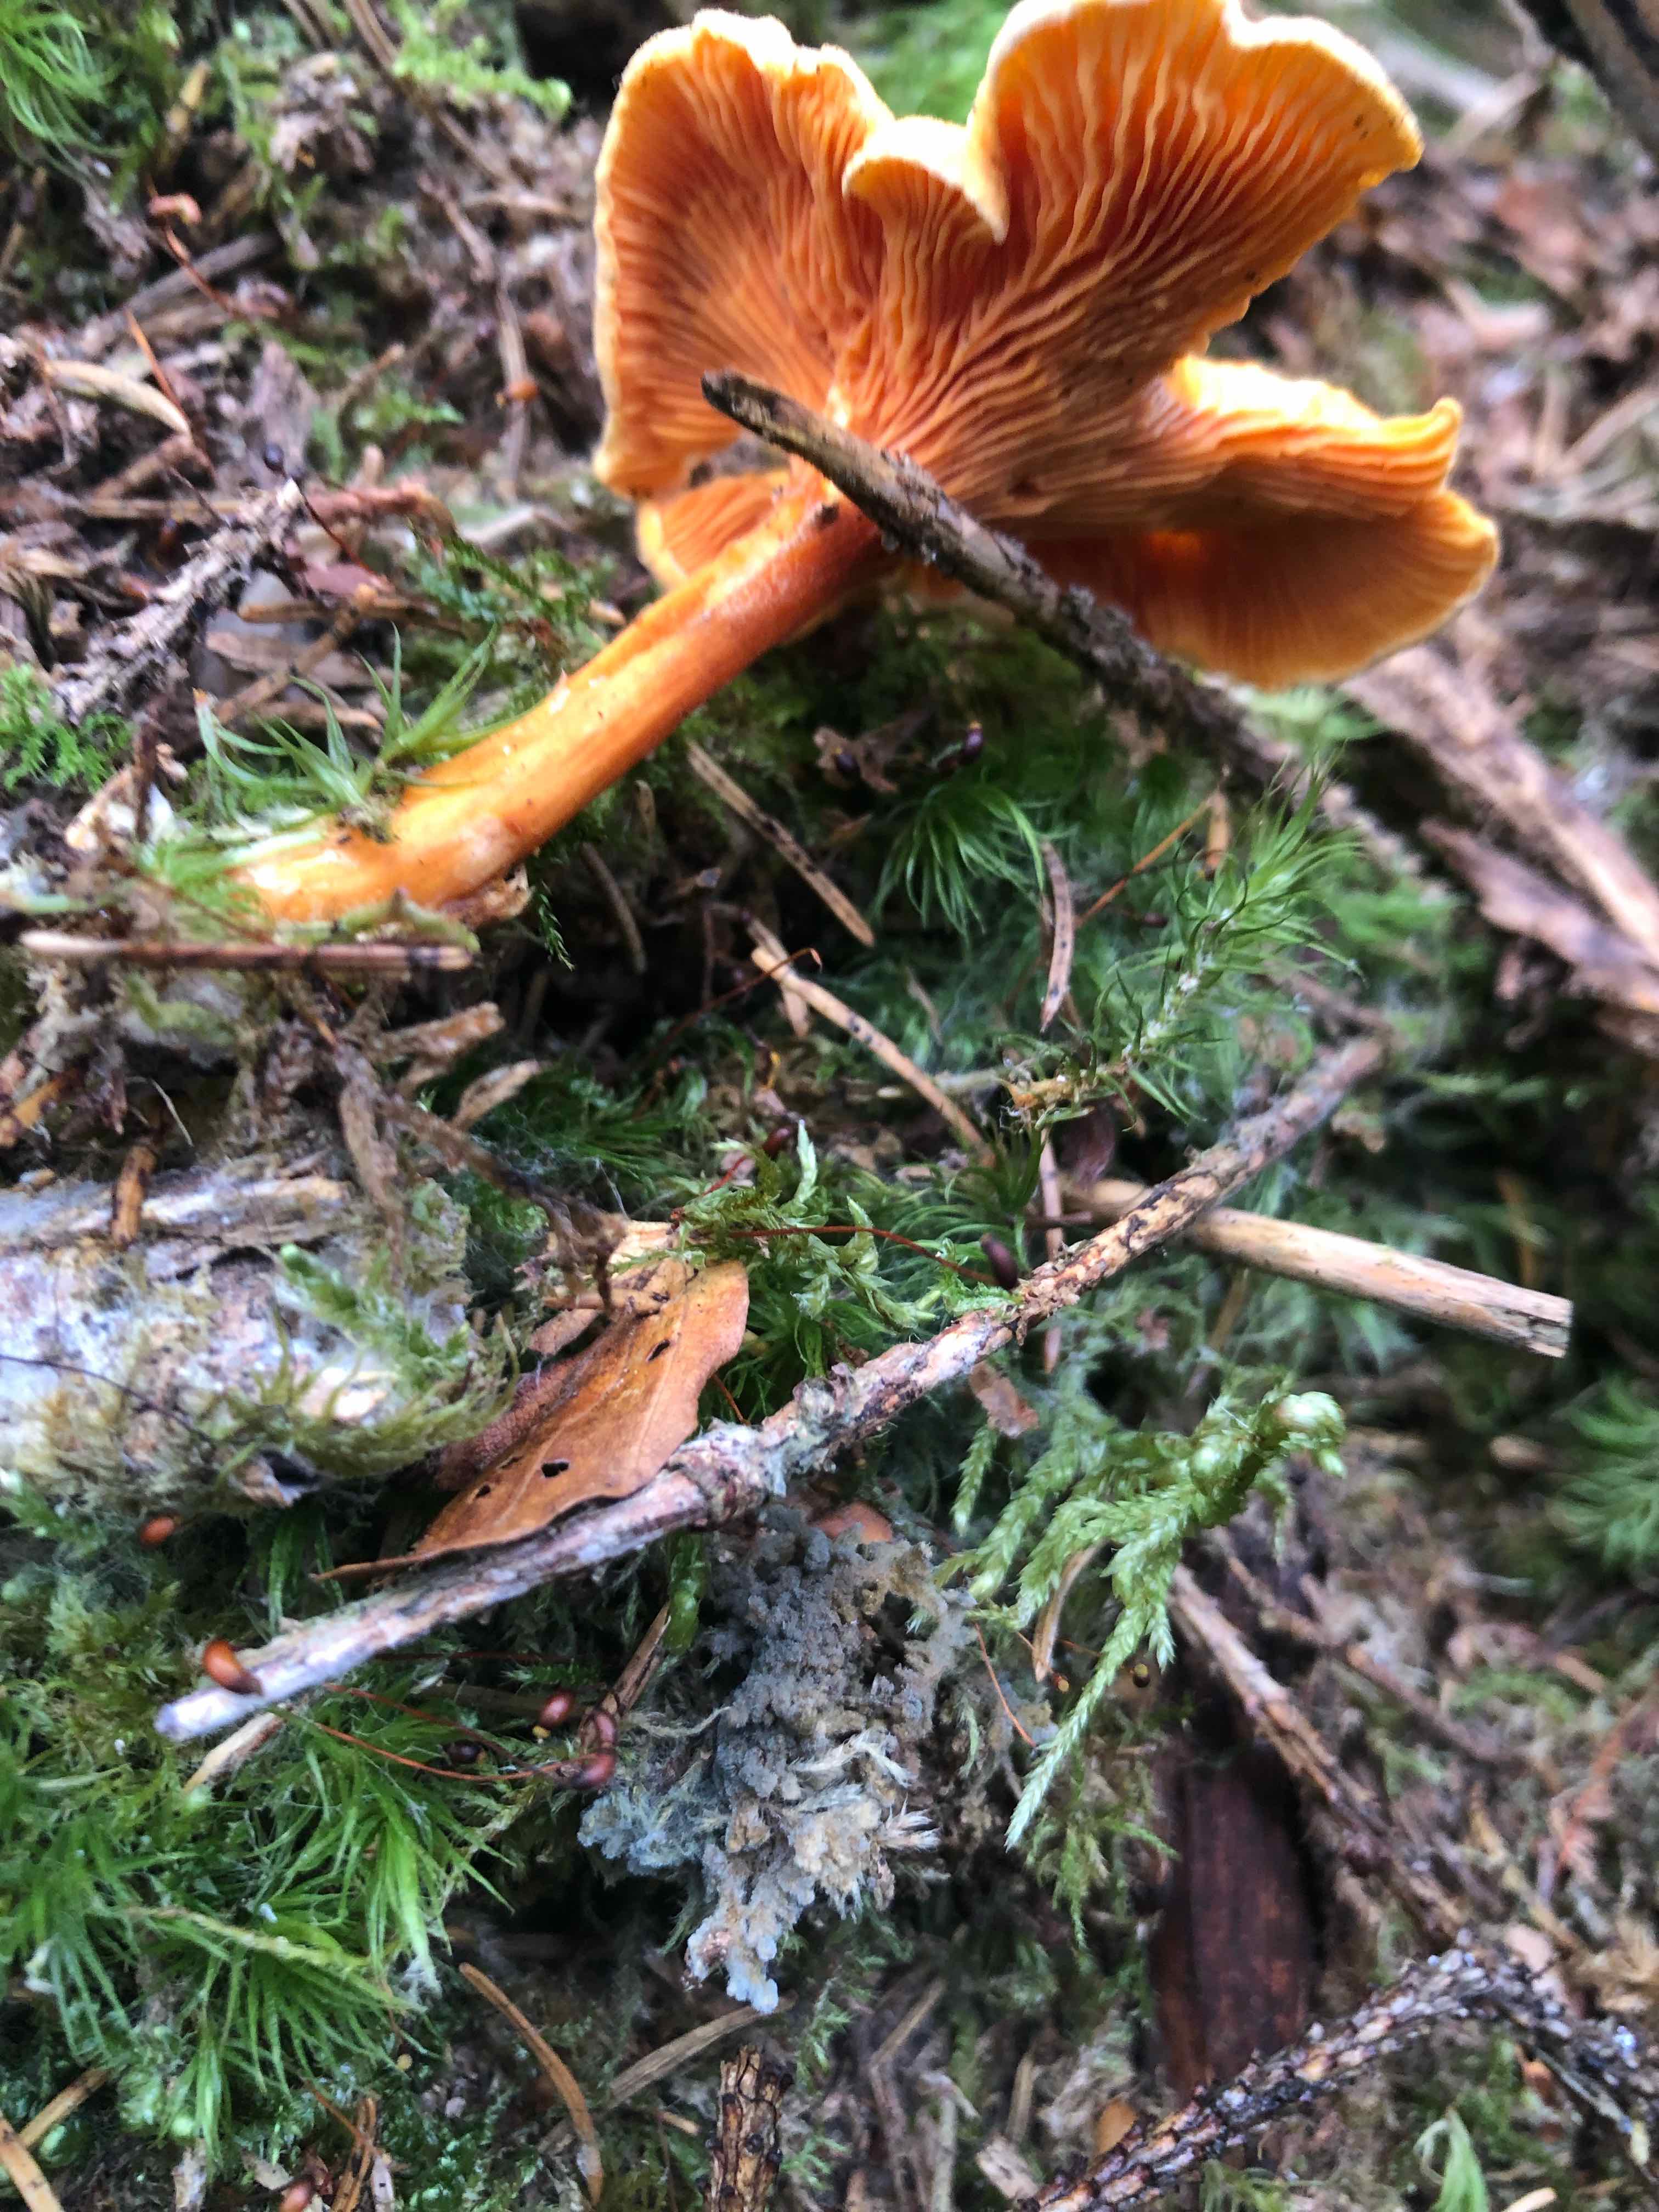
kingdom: Fungi
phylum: Basidiomycota
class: Agaricomycetes
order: Boletales
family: Hygrophoropsidaceae
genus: Hygrophoropsis
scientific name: Hygrophoropsis aurantiaca
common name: almindelig orangekantarel
